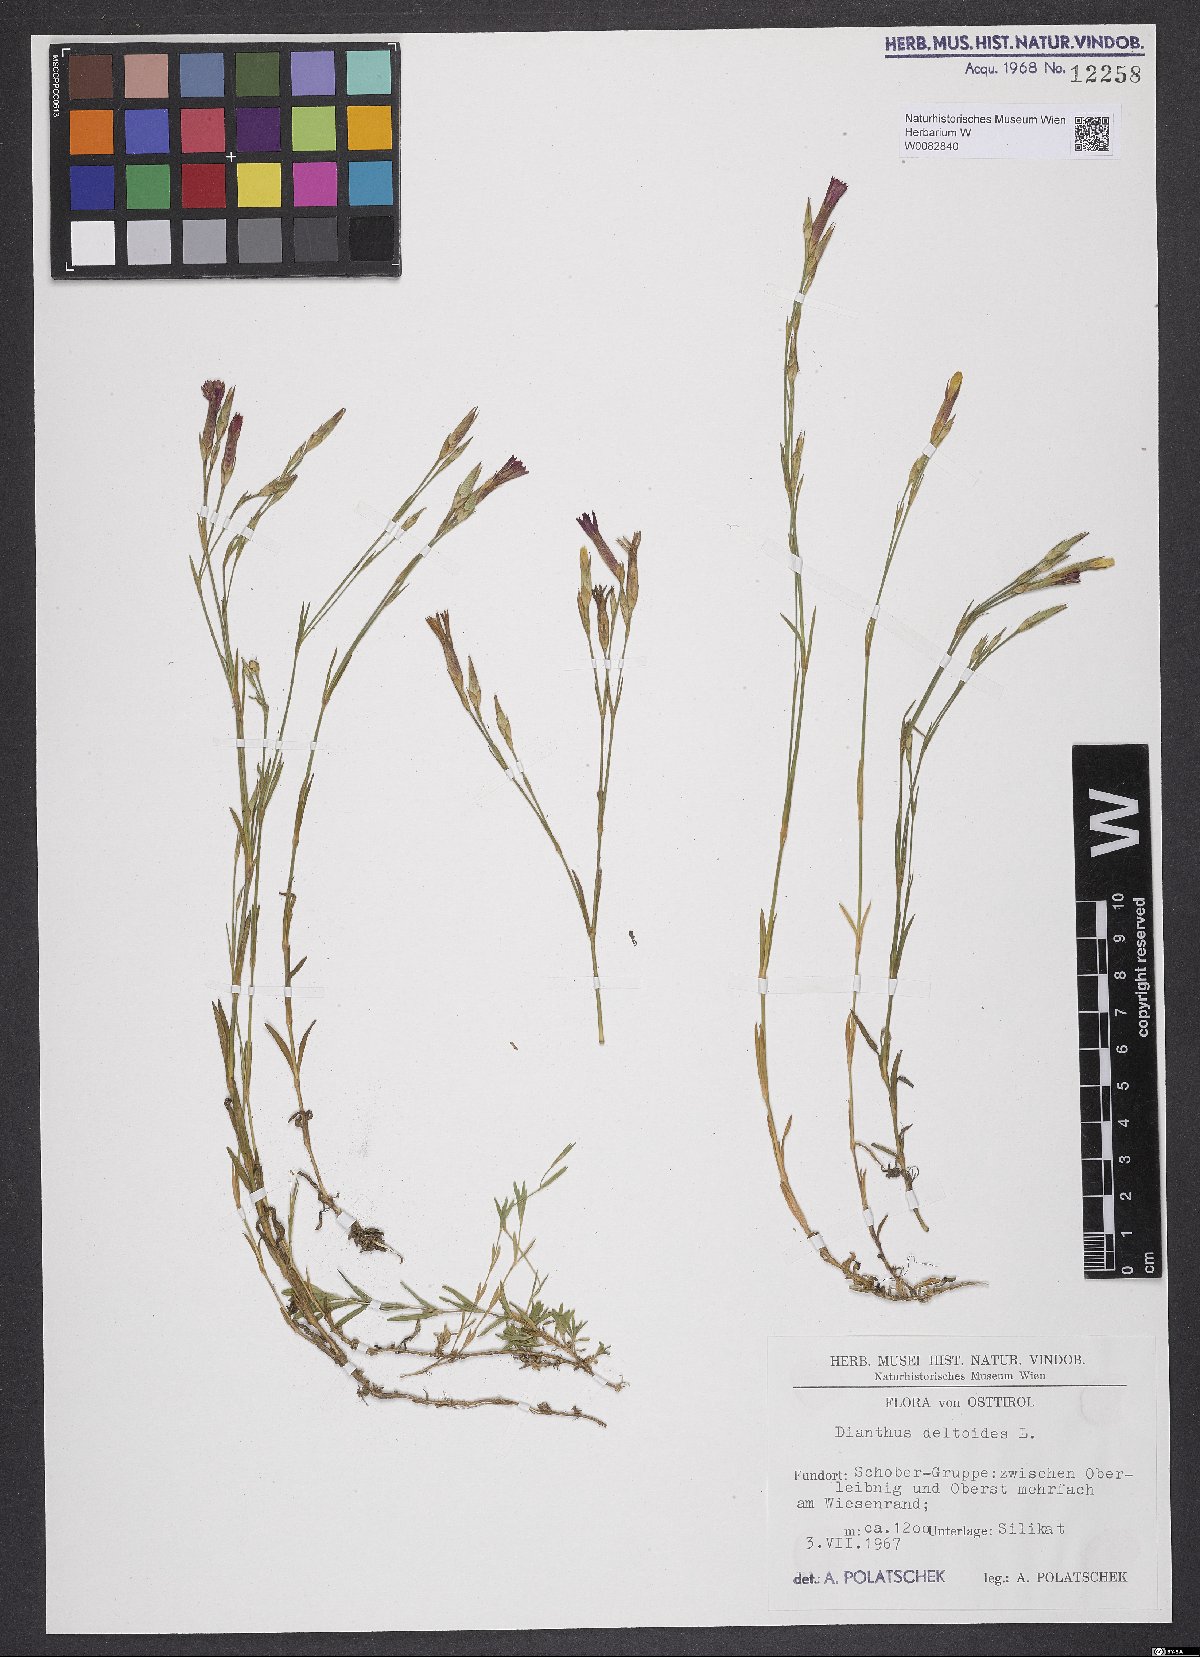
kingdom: Plantae
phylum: Tracheophyta
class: Magnoliopsida
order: Caryophyllales
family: Caryophyllaceae
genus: Dianthus
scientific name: Dianthus deltoides
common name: Maiden pink
